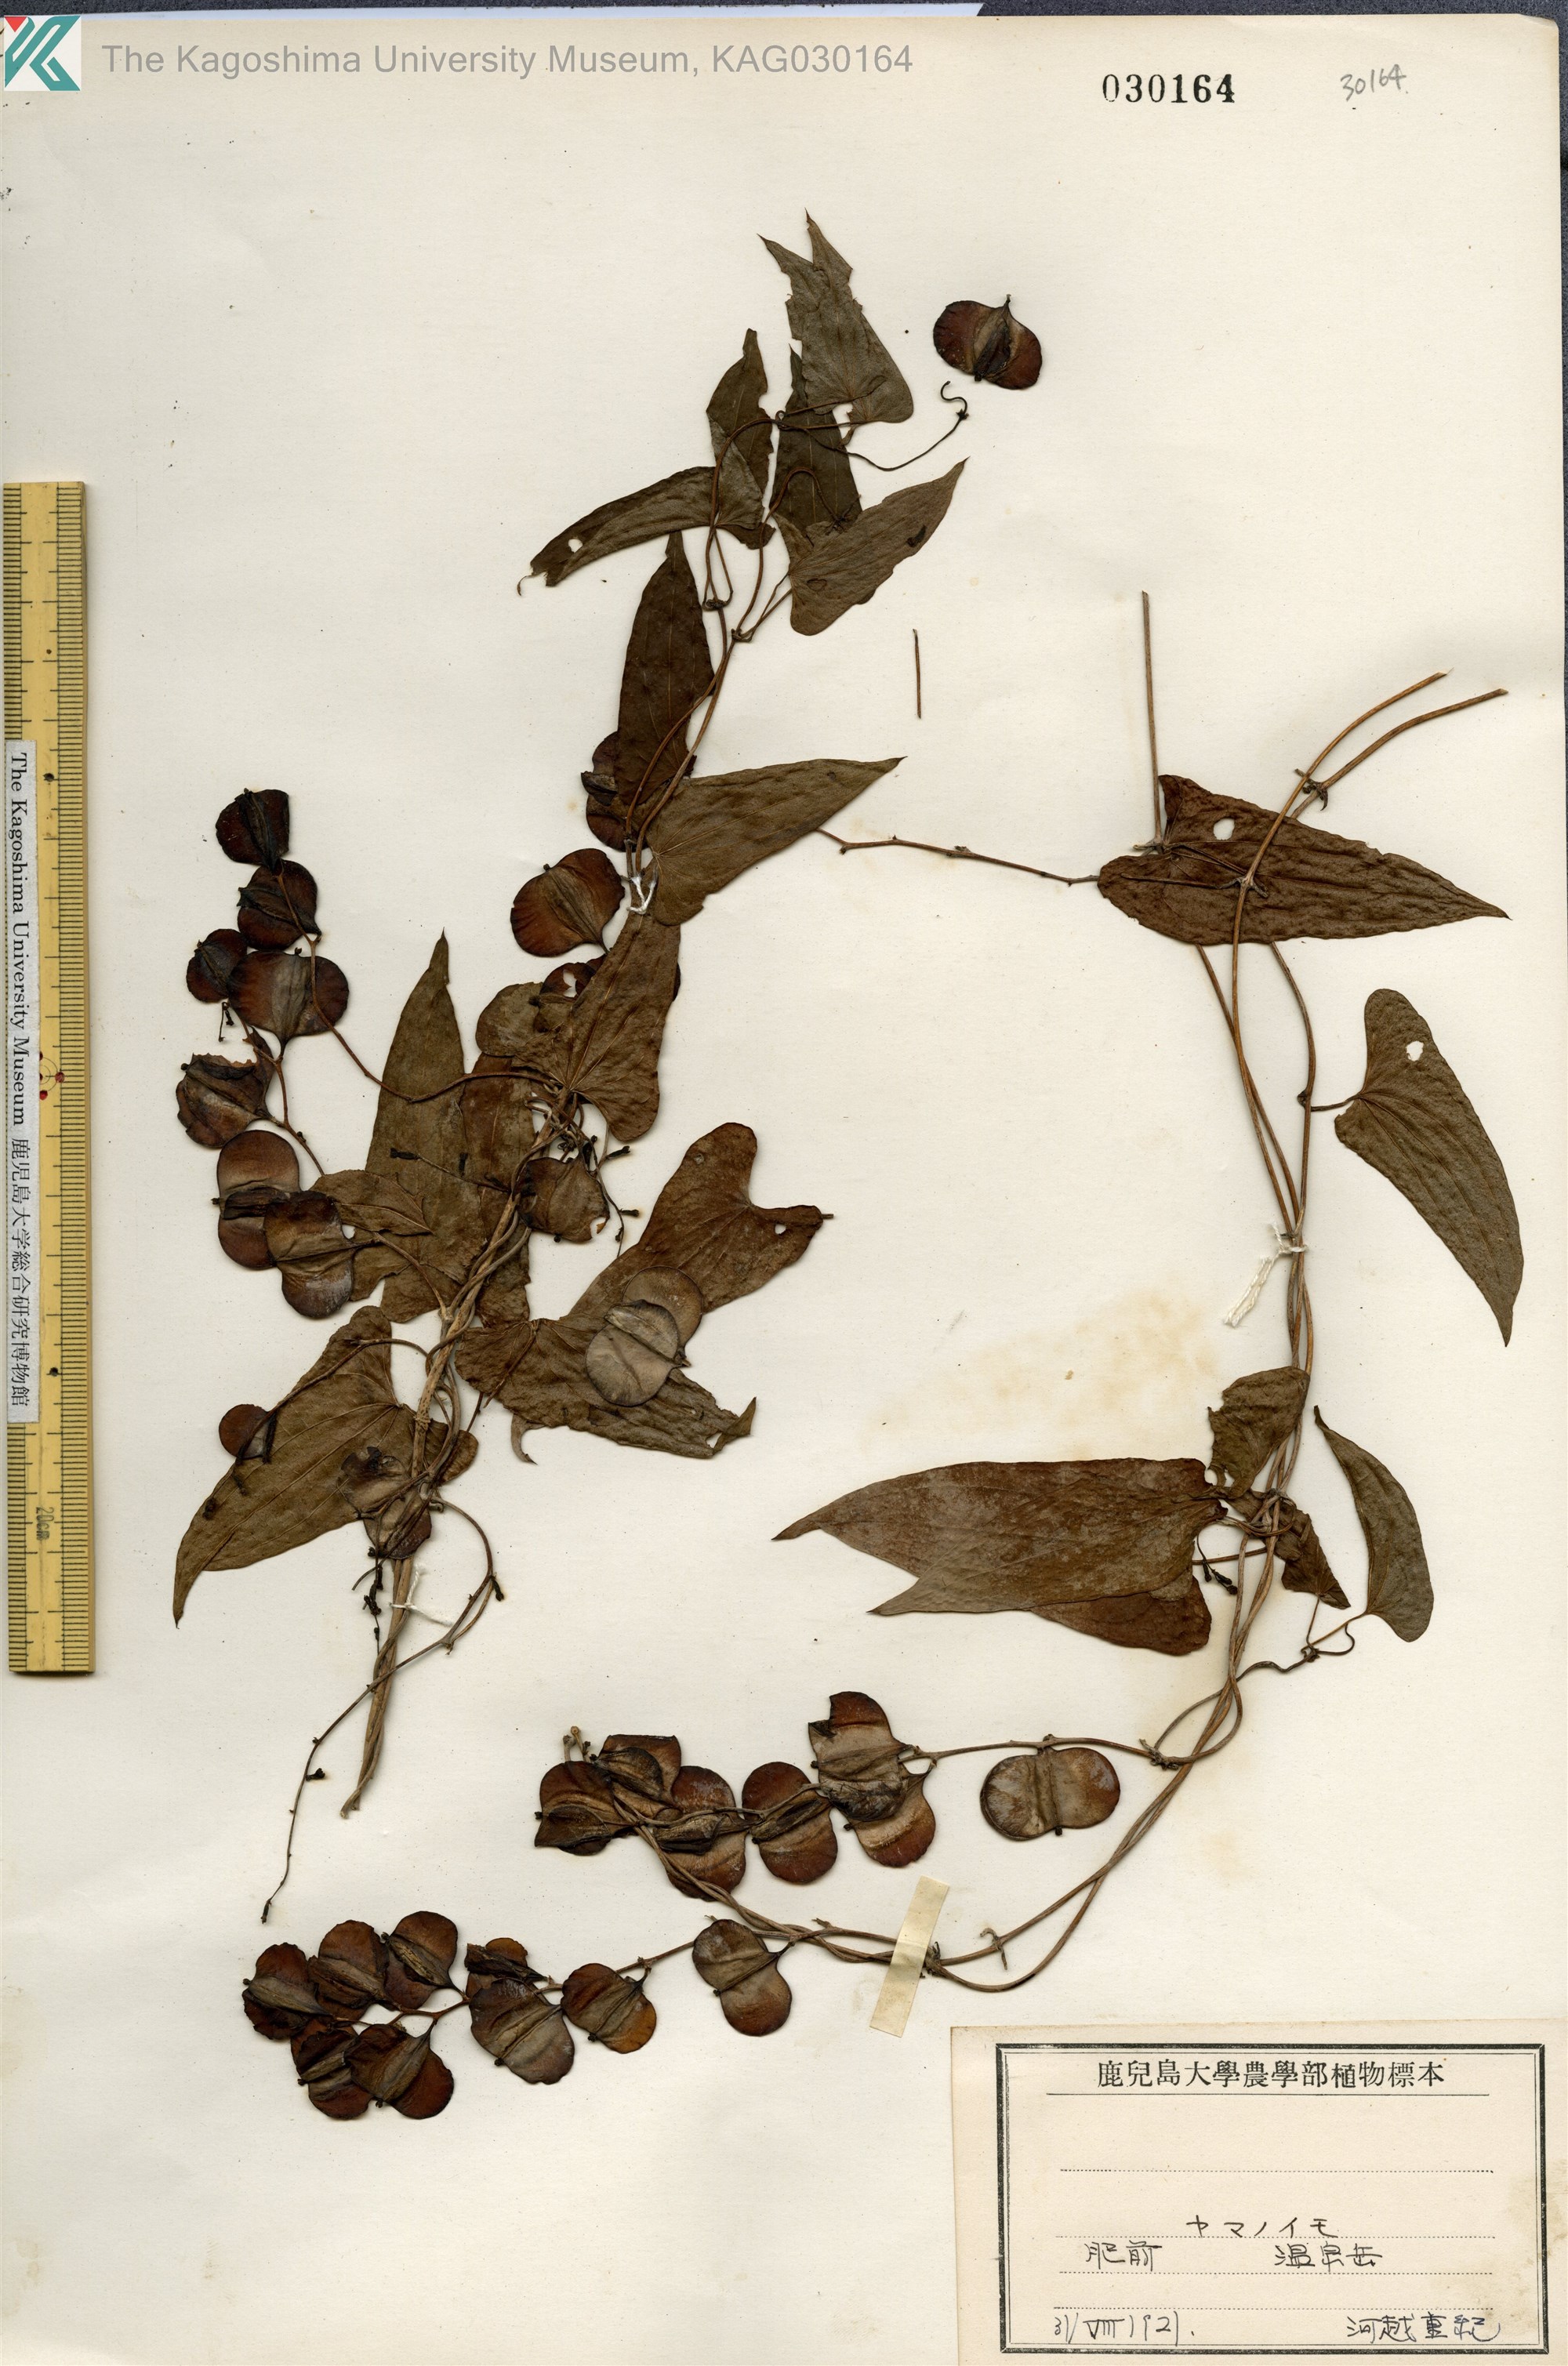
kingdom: Plantae
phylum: Tracheophyta
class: Liliopsida
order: Dioscoreales
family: Dioscoreaceae
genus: Dioscorea
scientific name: Dioscorea japonica
